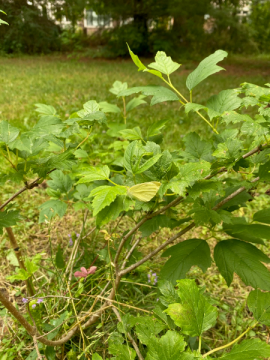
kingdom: Animalia
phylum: Arthropoda
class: Insecta
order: Lepidoptera
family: Pieridae
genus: Pieris
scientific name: Pieris rapae
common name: Cabbage White
